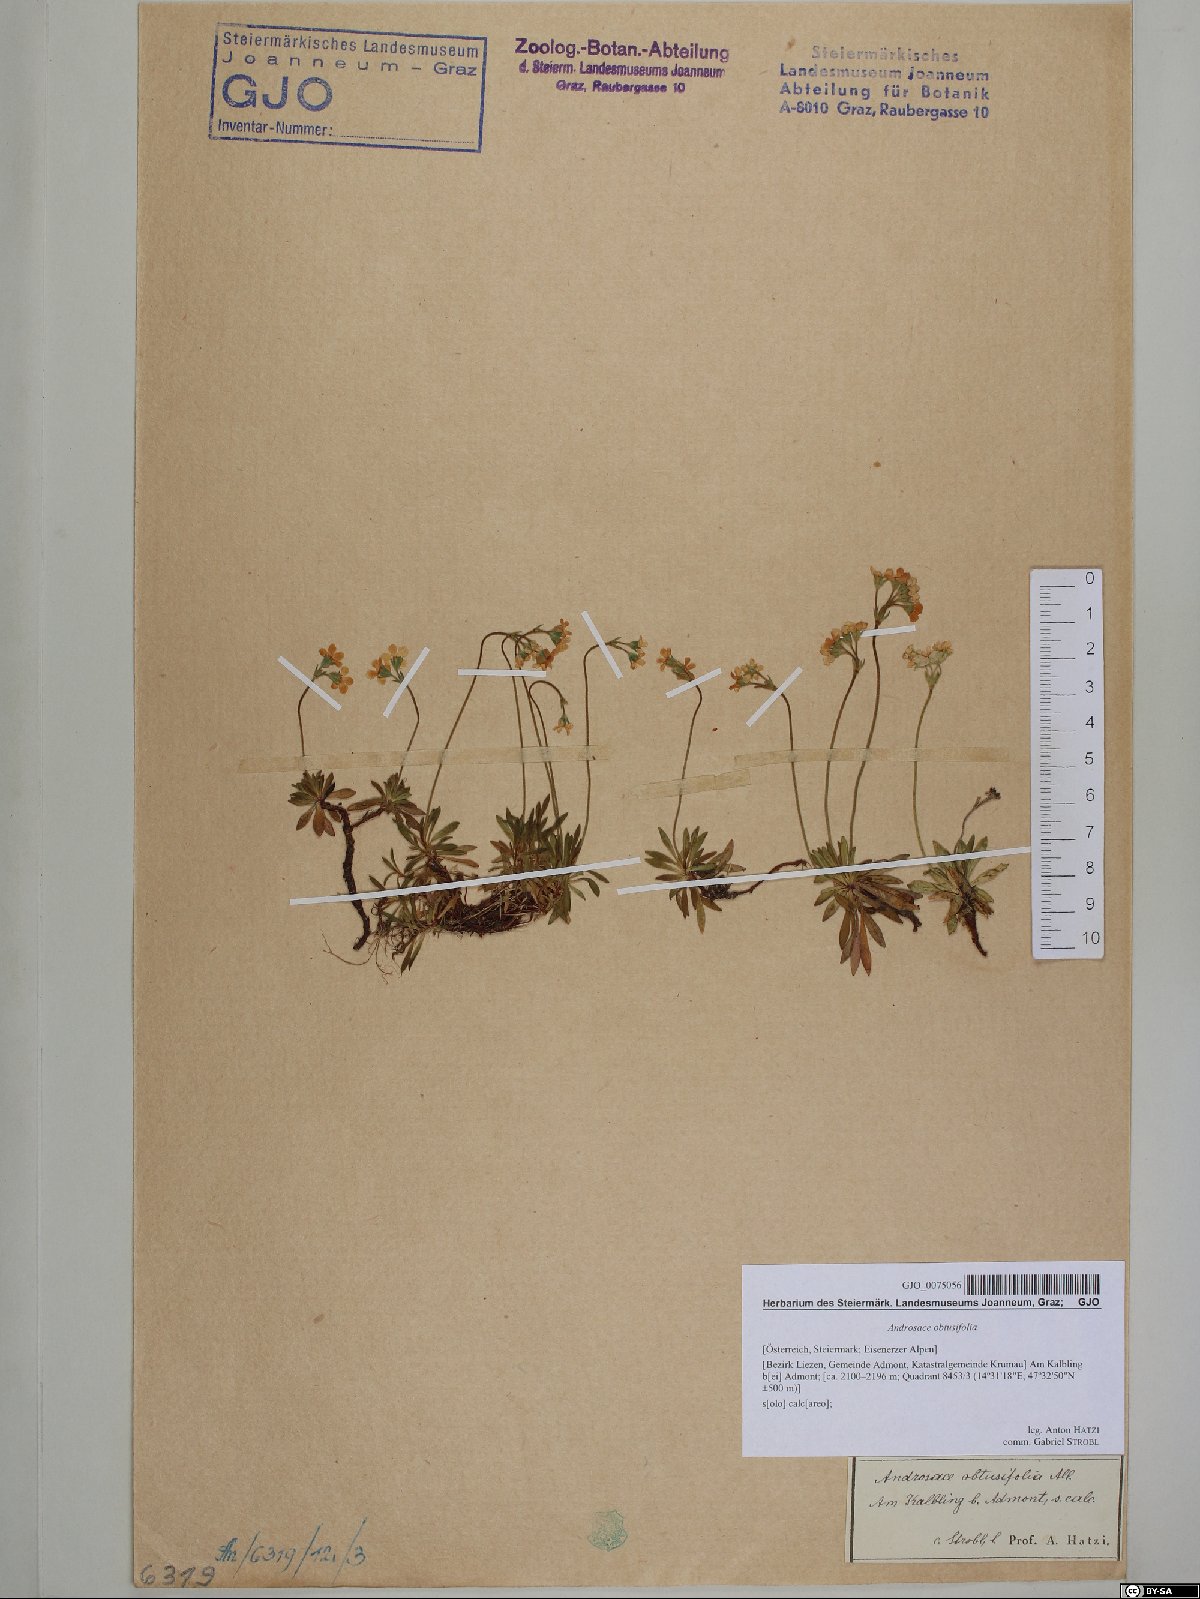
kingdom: Plantae
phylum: Tracheophyta
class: Magnoliopsida
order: Ericales
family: Primulaceae
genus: Androsace
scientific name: Androsace obtusifolia
